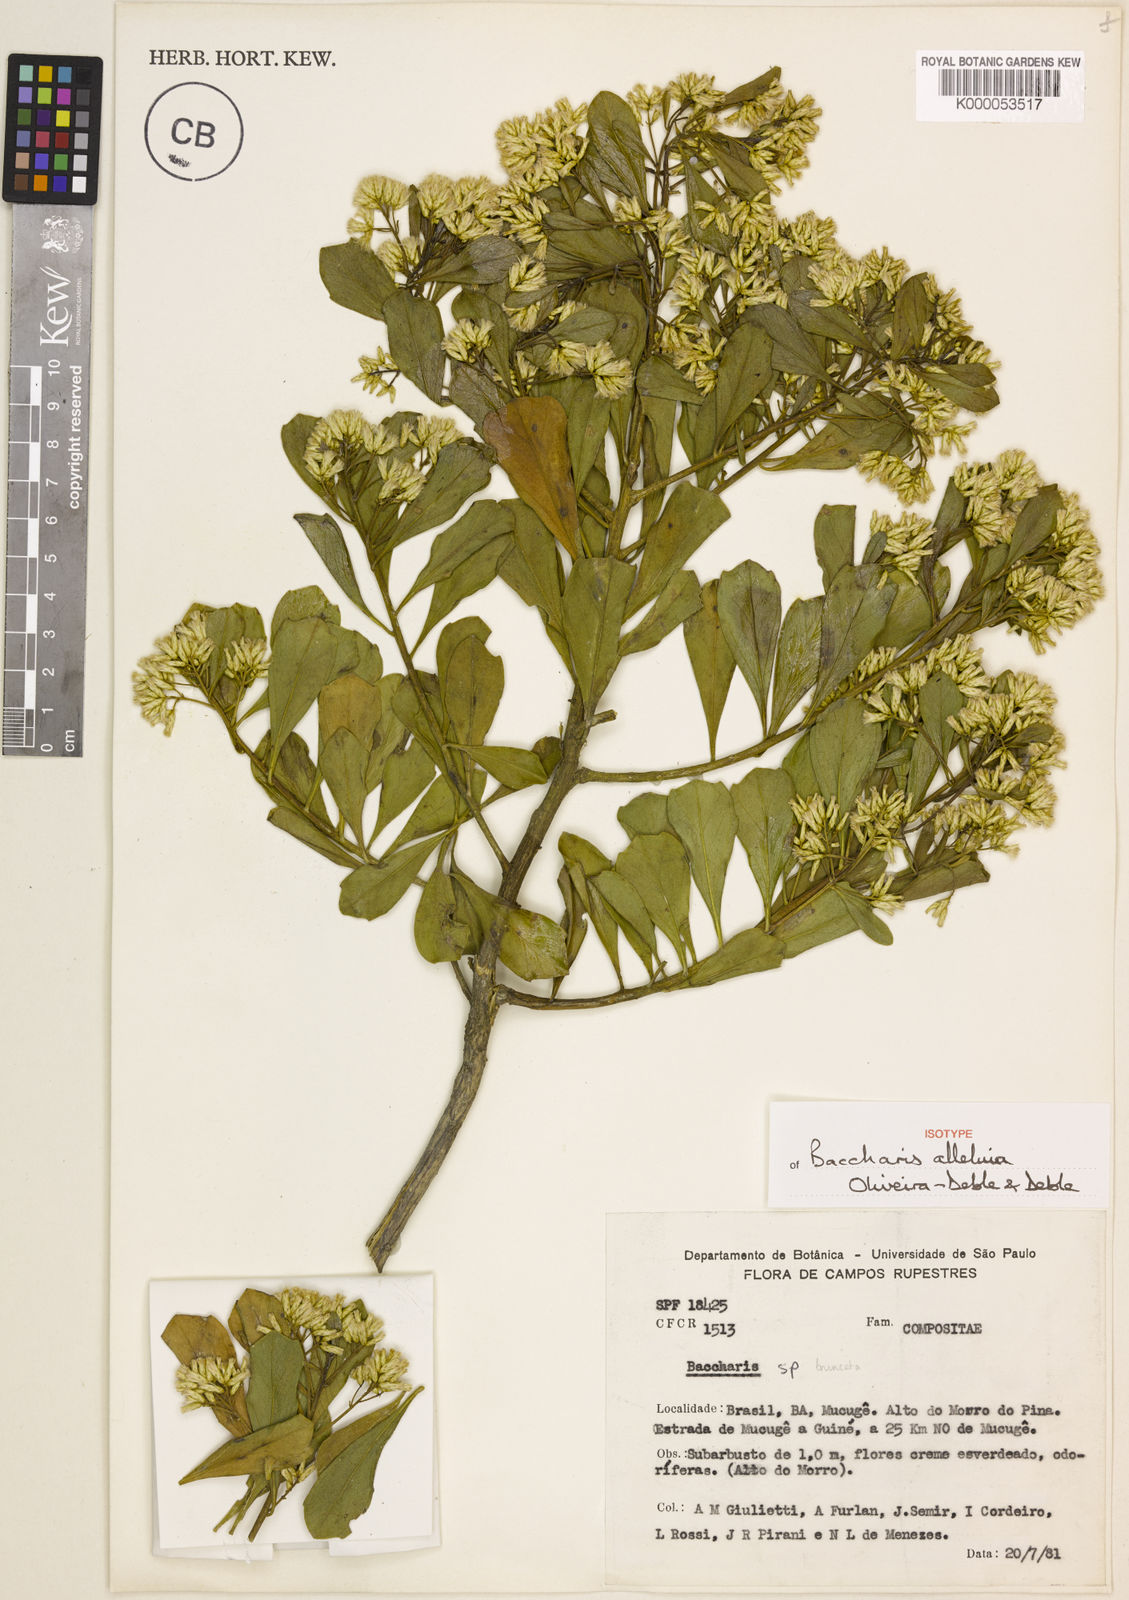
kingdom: Plantae
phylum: Tracheophyta
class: Magnoliopsida
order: Asterales
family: Asteraceae
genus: Baccharis
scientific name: Baccharis
